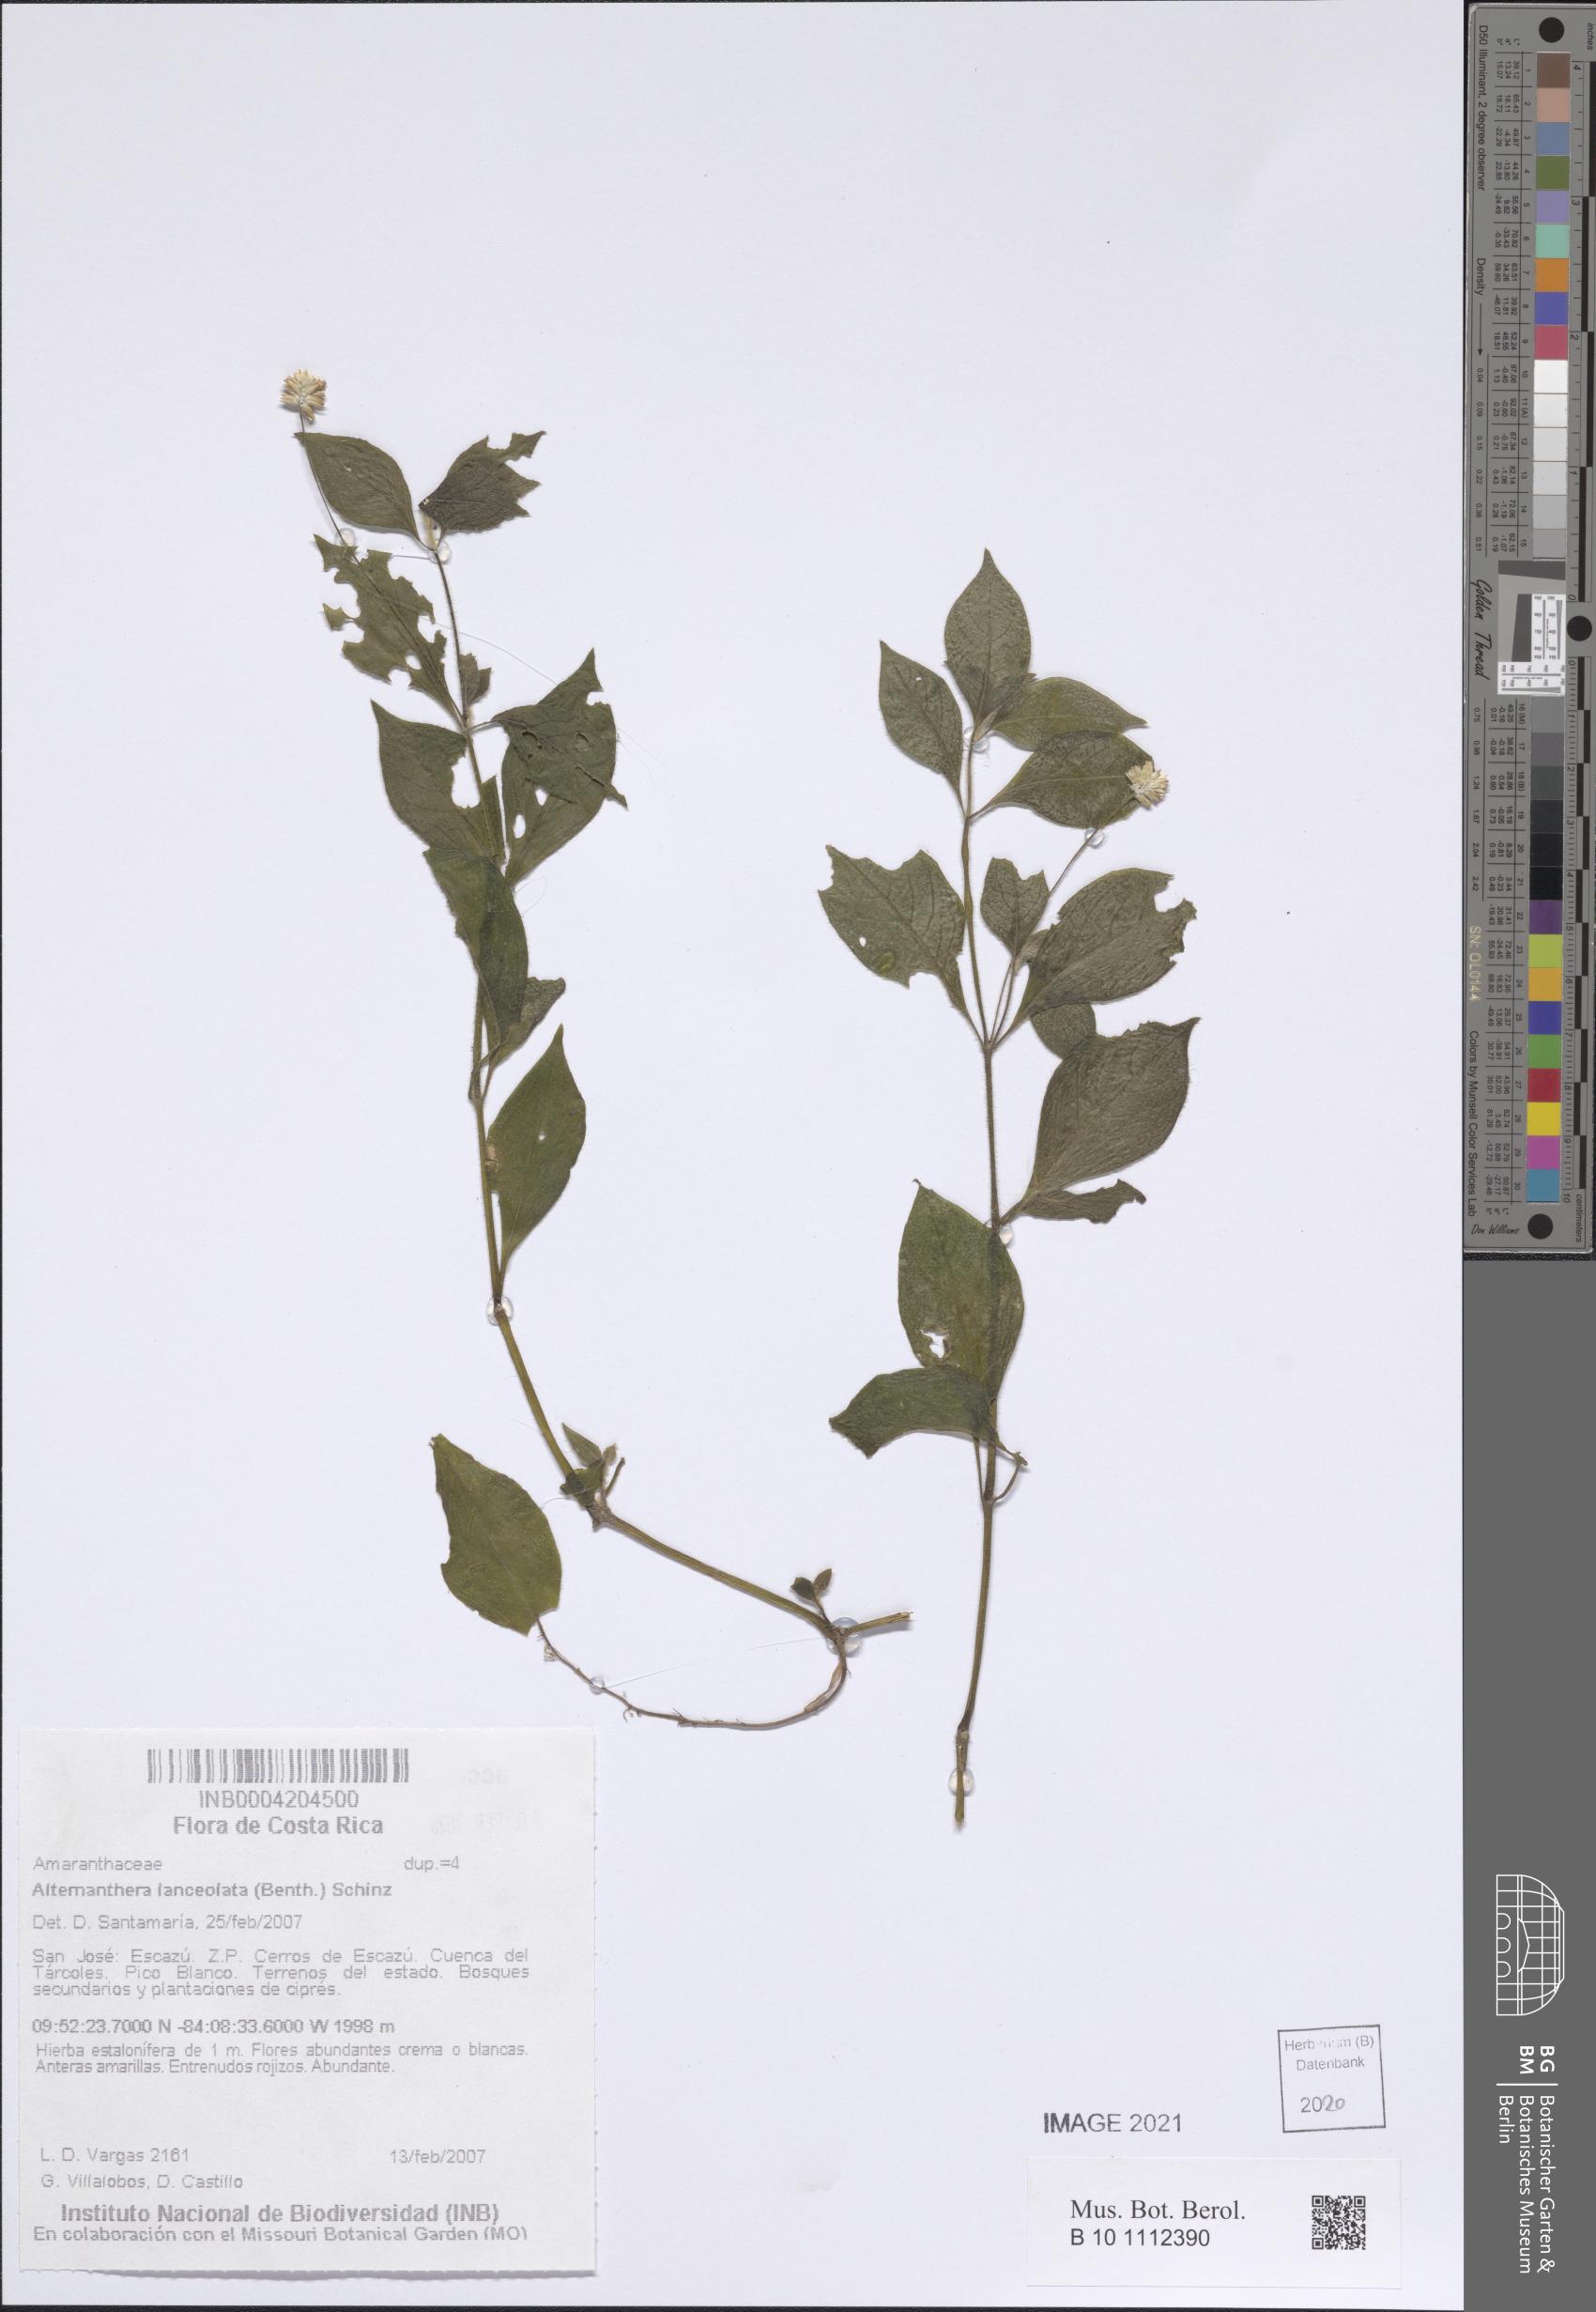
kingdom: Plantae
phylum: Tracheophyta
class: Magnoliopsida
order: Caryophyllales
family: Amaranthaceae
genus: Alternanthera
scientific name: Alternanthera lanceolata
